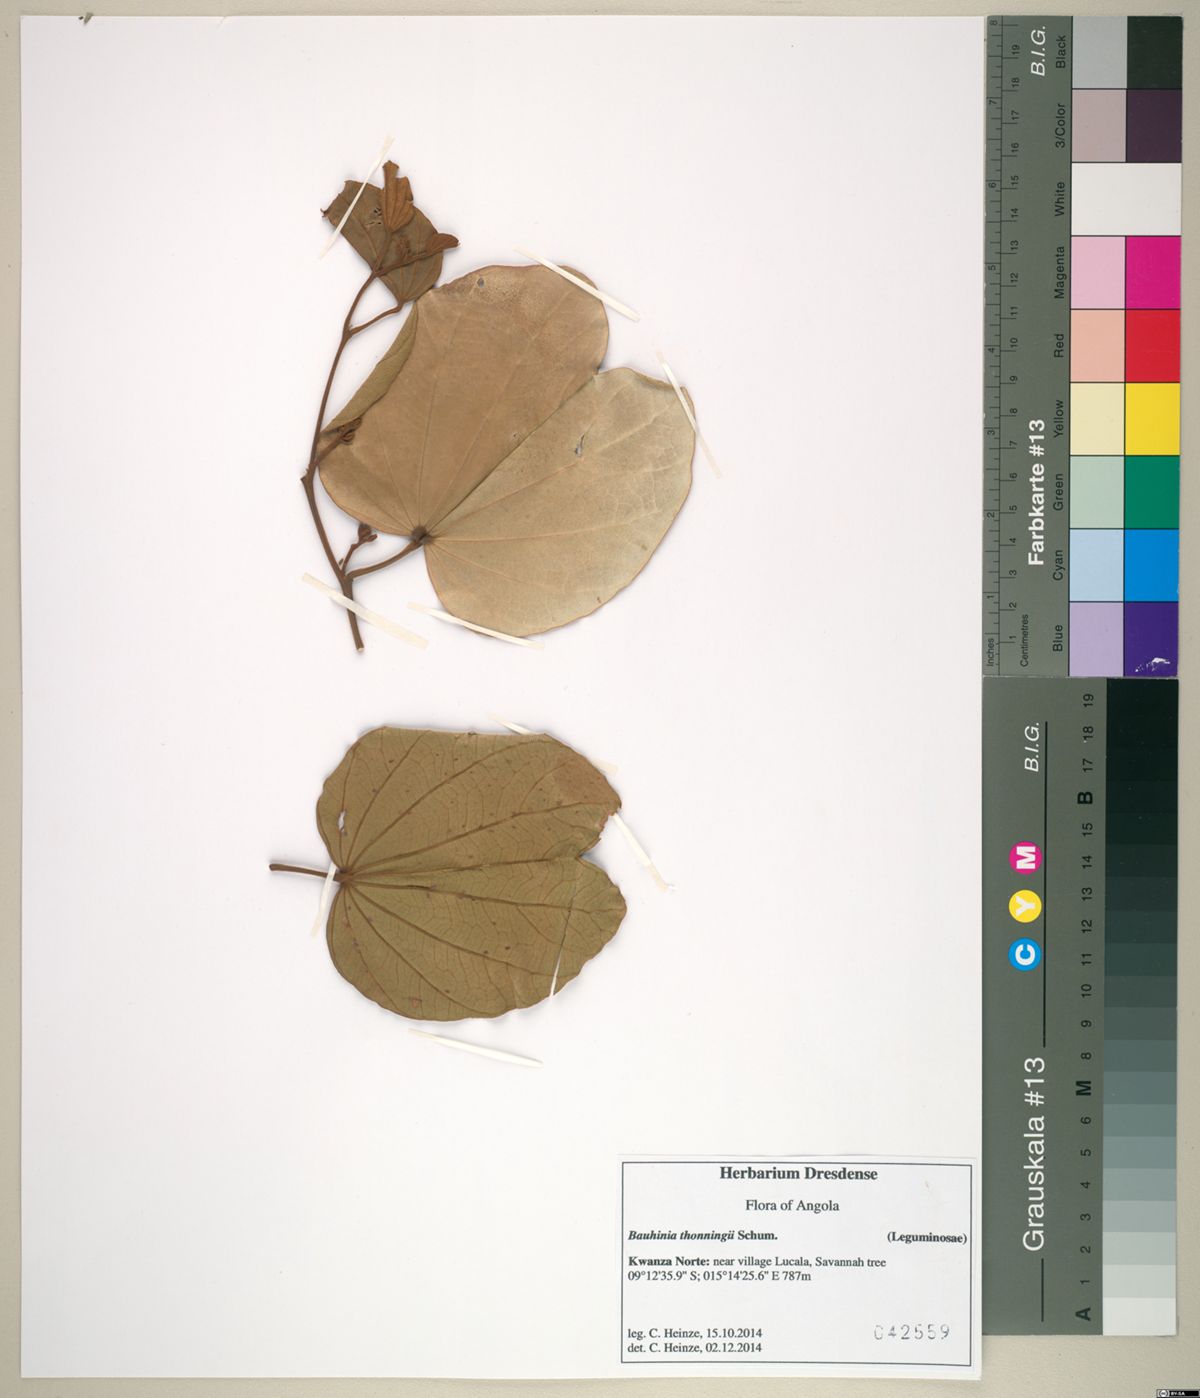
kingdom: Plantae
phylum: Tracheophyta
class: Magnoliopsida
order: Fabales
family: Fabaceae
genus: Piliostigma
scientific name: Piliostigma thonningii
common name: Kao
